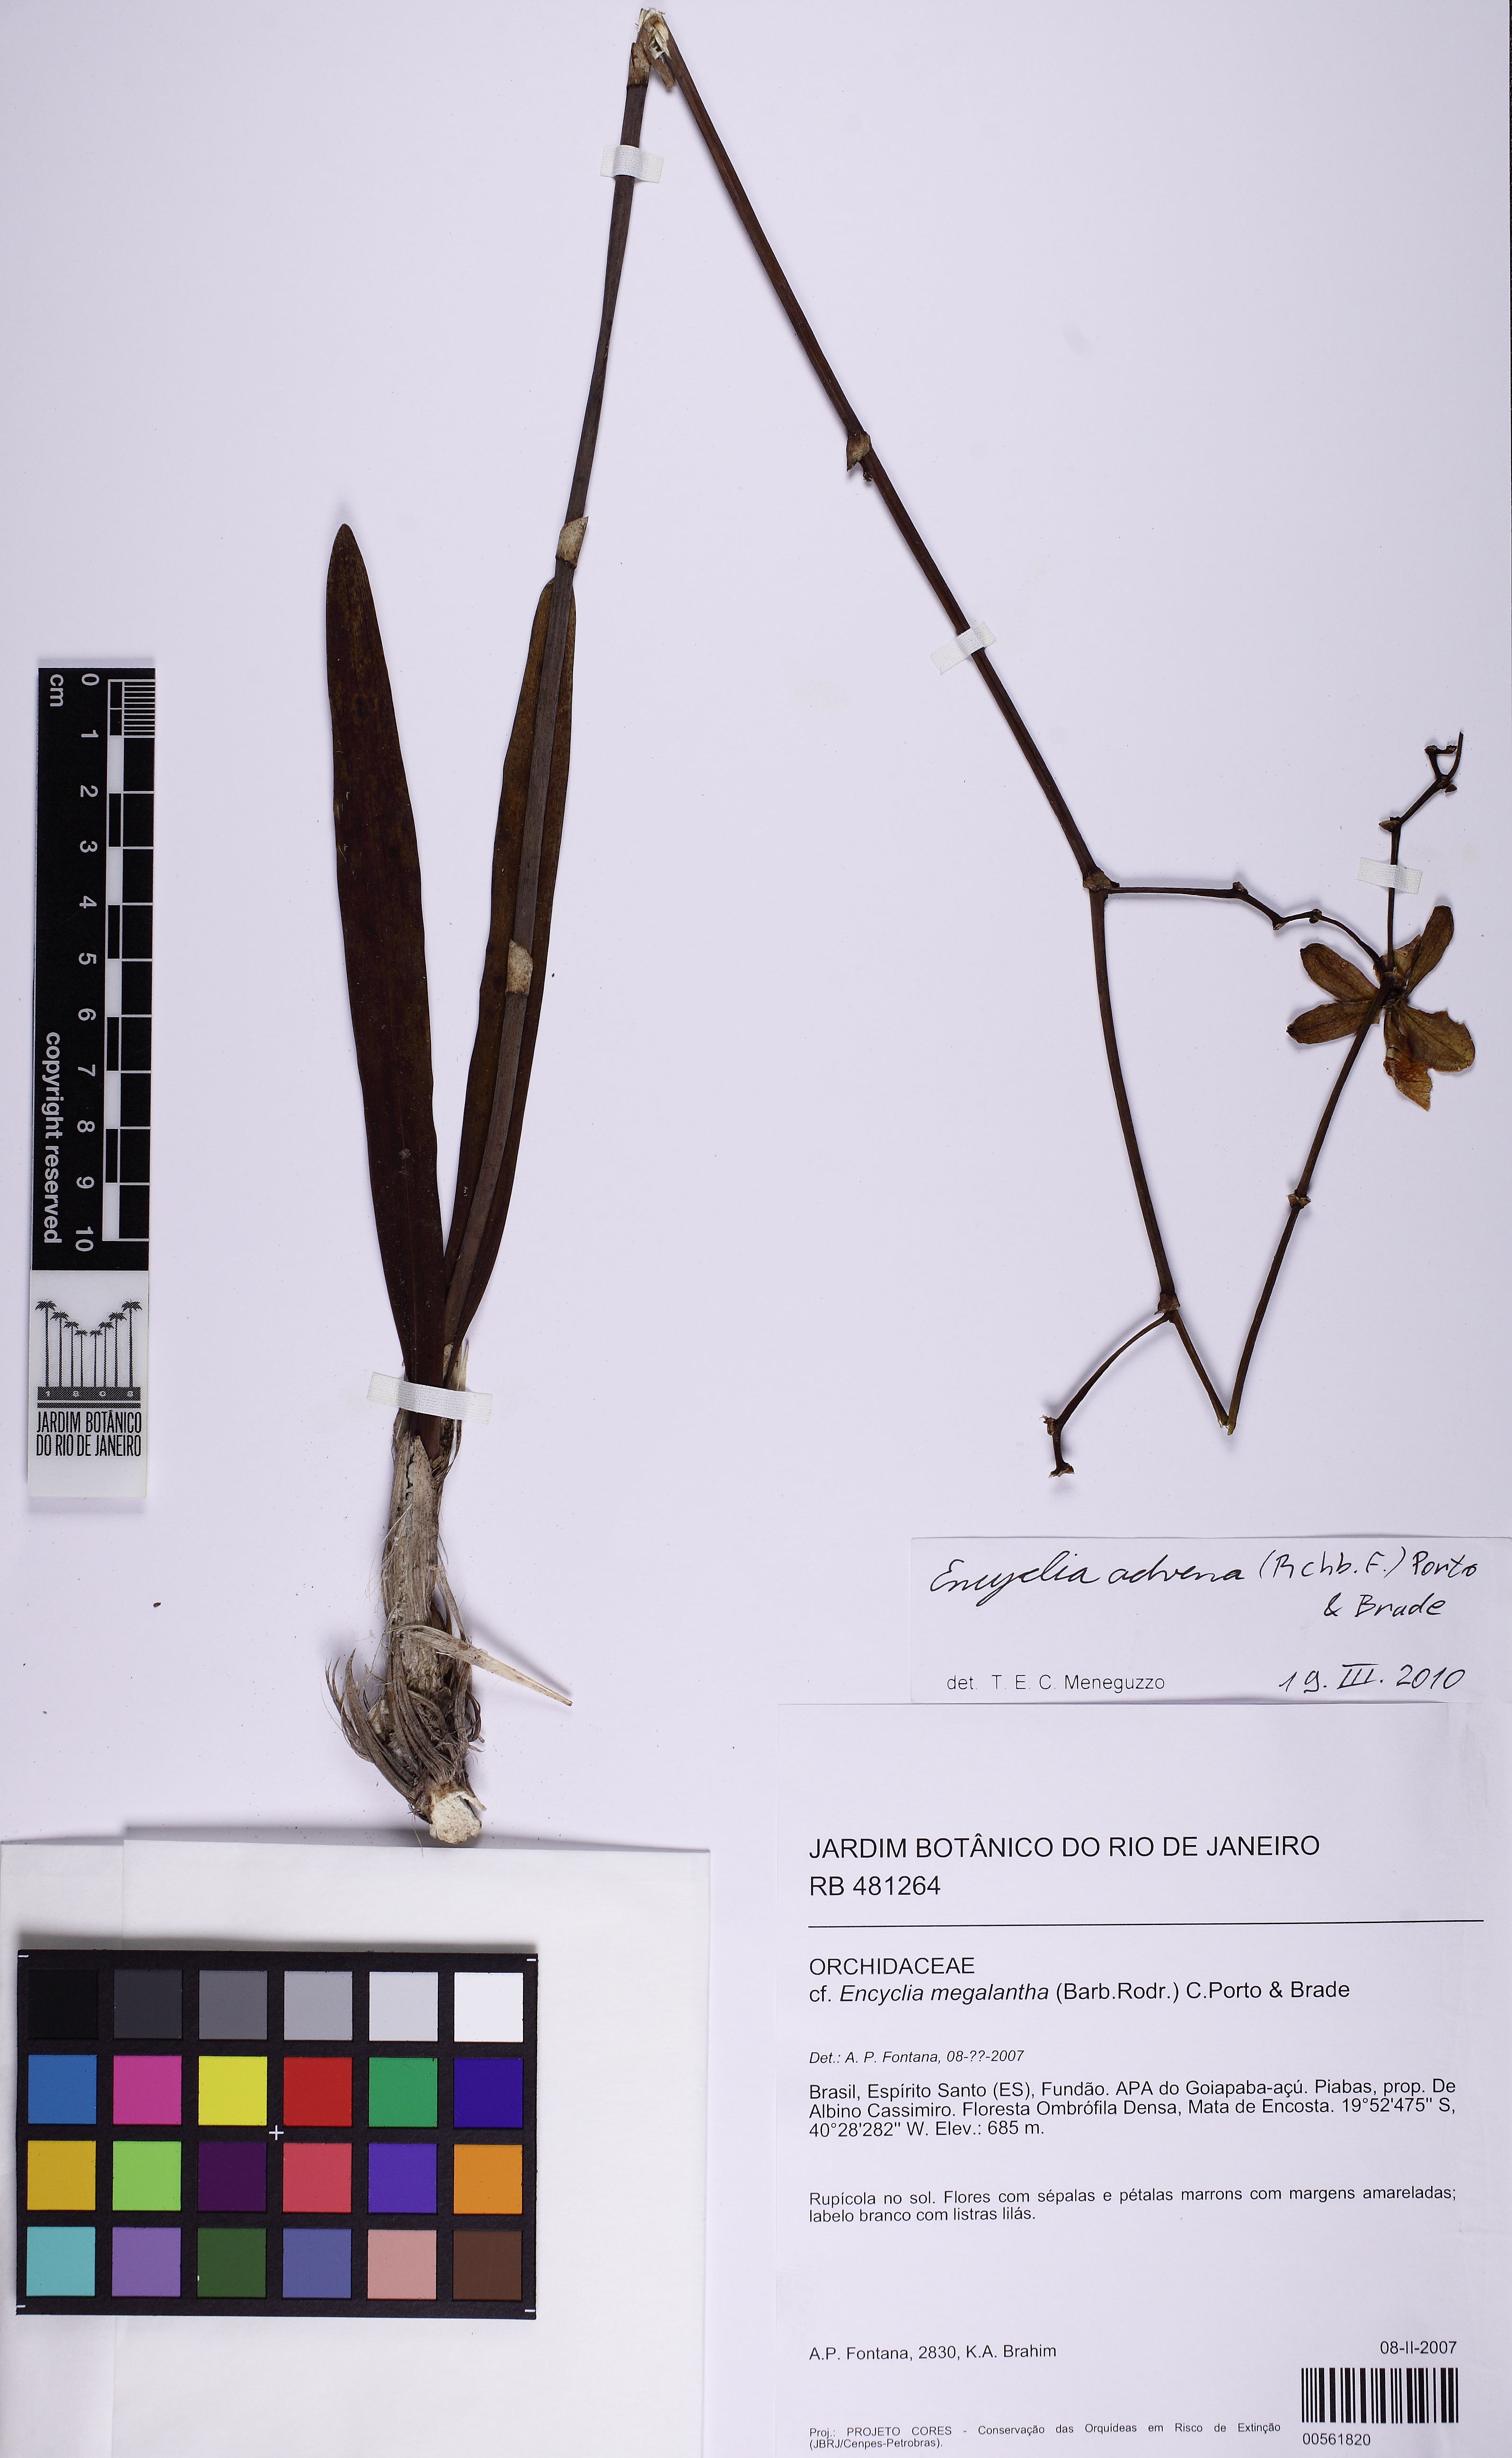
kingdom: Plantae
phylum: Tracheophyta
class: Liliopsida
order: Asparagales
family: Orchidaceae
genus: Encyclia
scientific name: Encyclia advena
